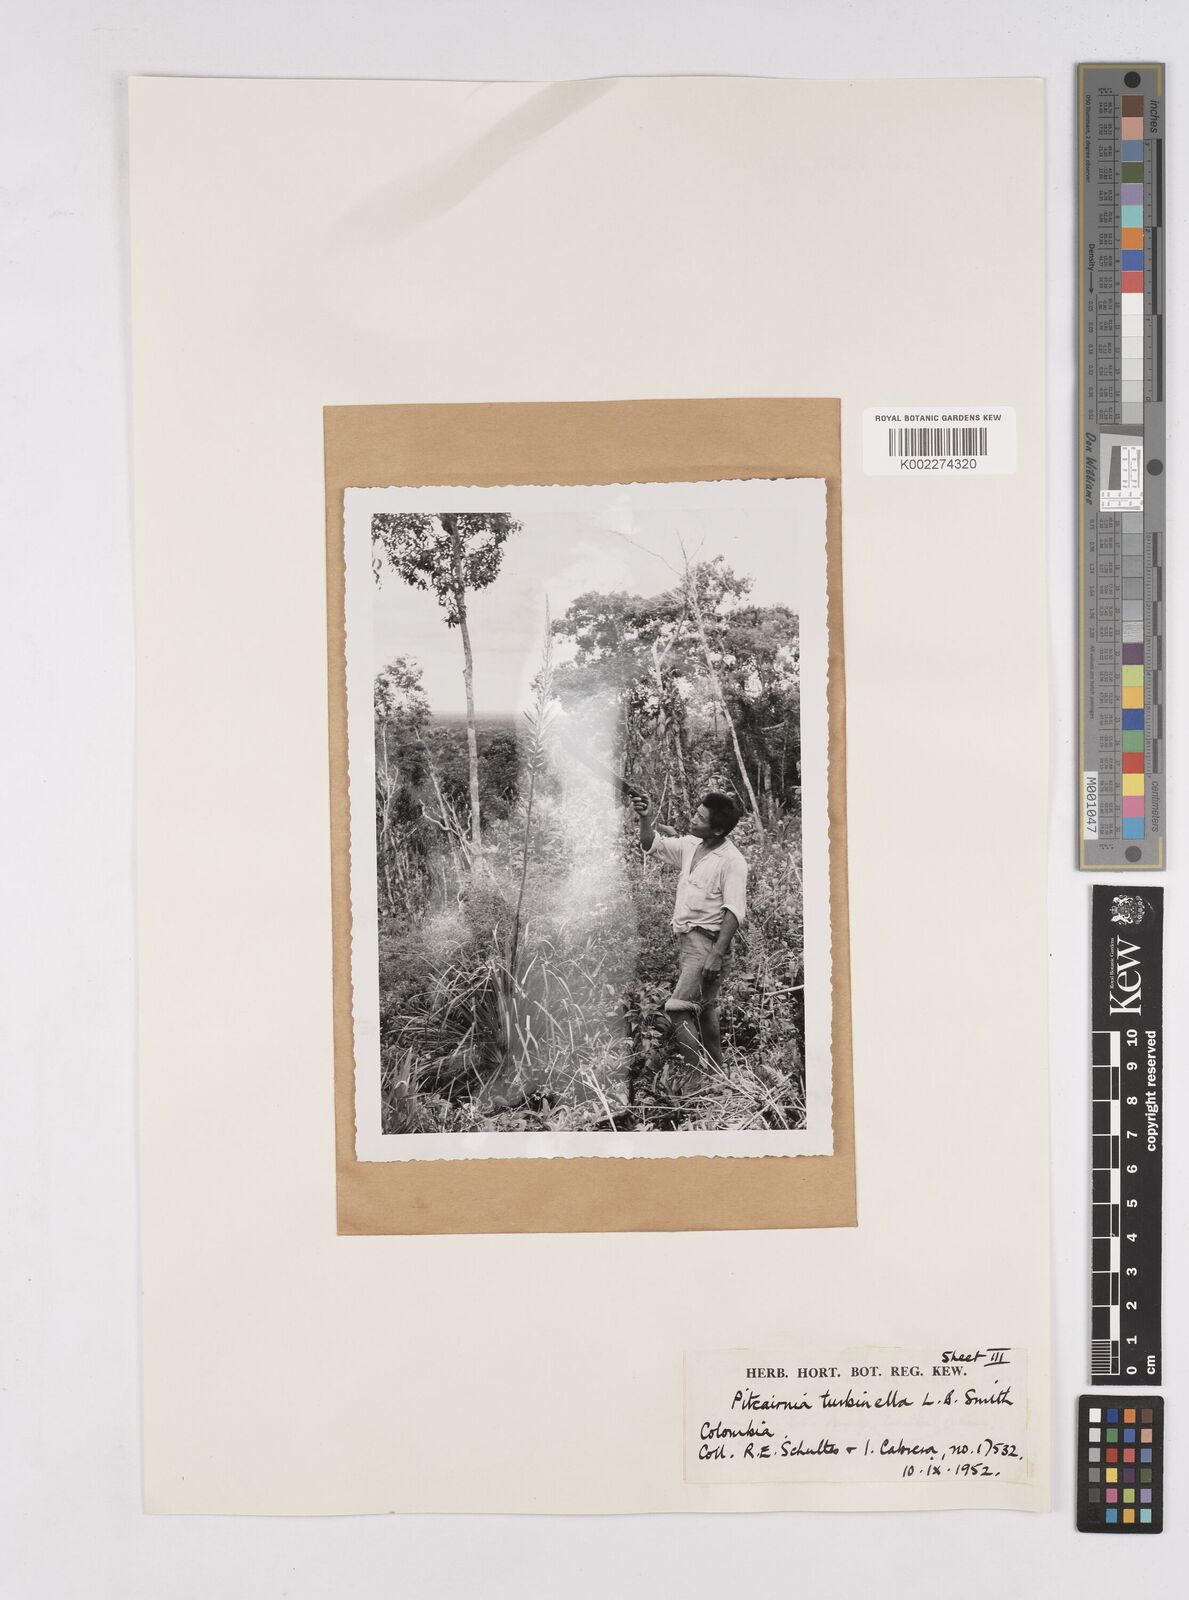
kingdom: Plantae
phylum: Tracheophyta
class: Liliopsida
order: Poales
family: Bromeliaceae
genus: Pitcairnia
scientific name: Pitcairnia turbinella
